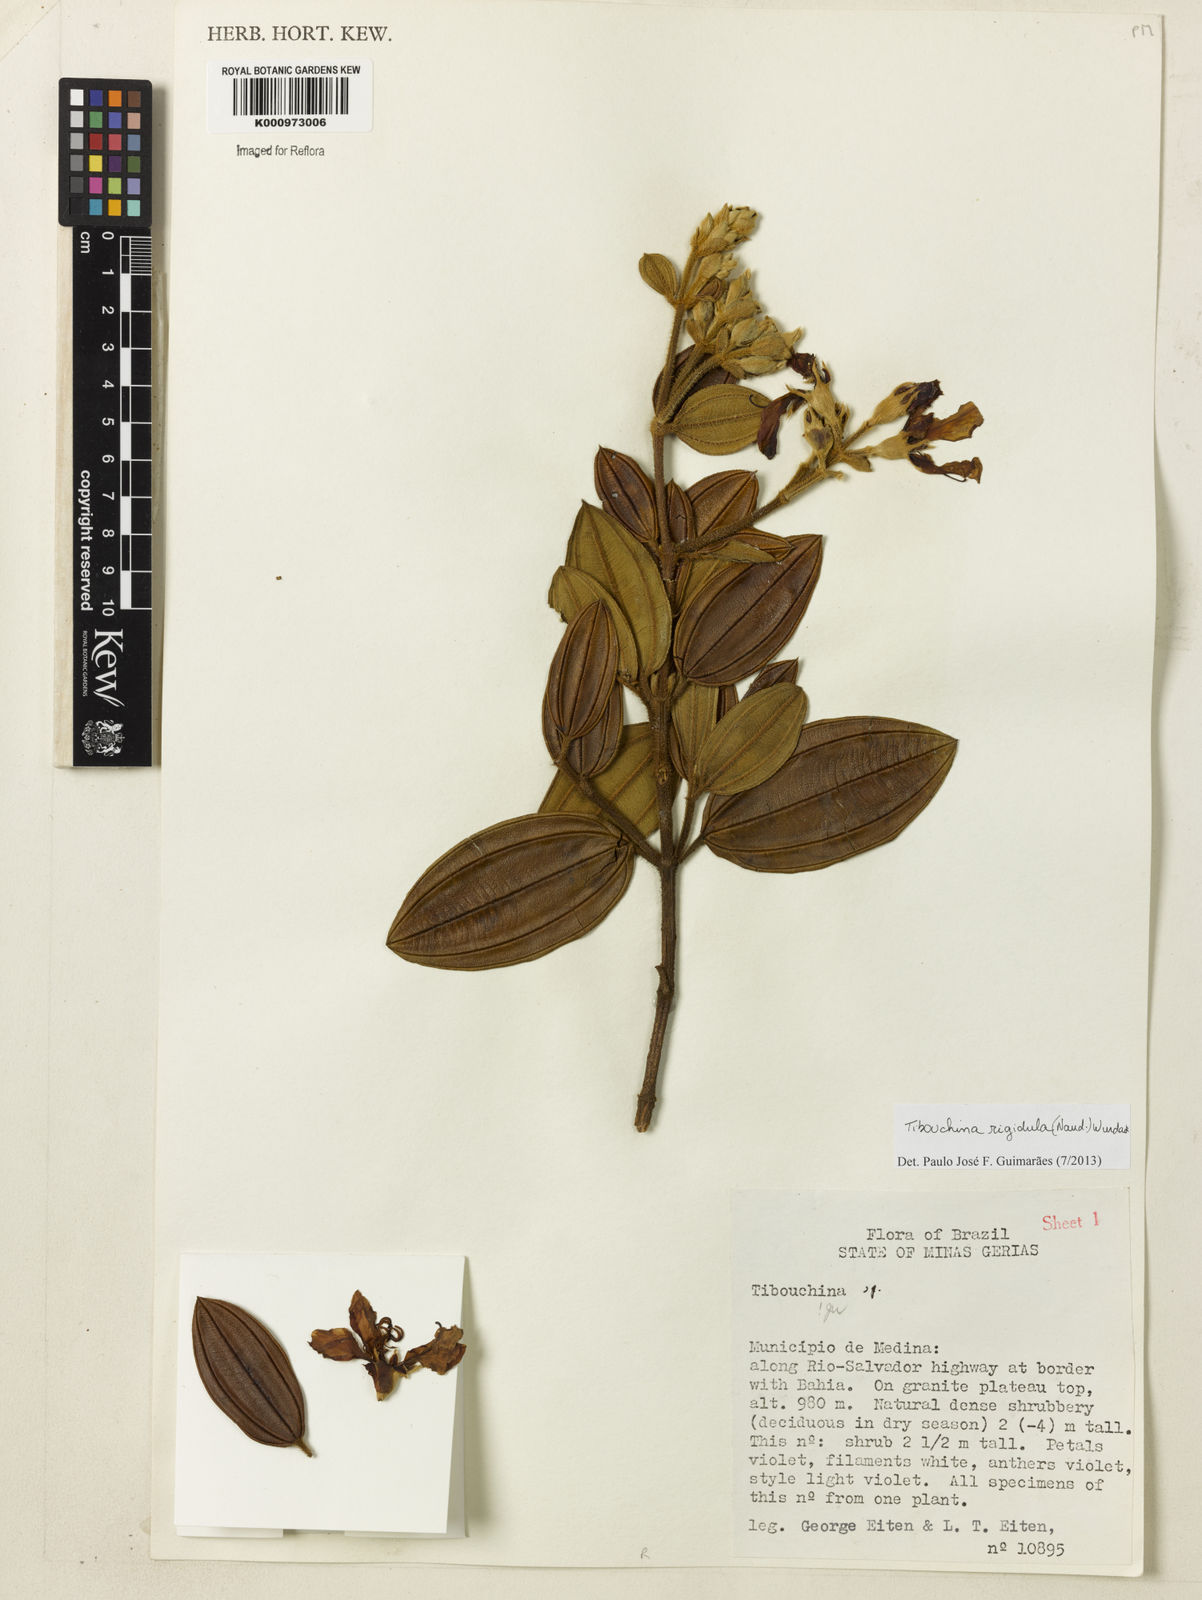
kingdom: Plantae
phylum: Tracheophyta
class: Magnoliopsida
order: Myrtales
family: Melastomataceae
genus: Pleroma
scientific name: Pleroma rigidulum
